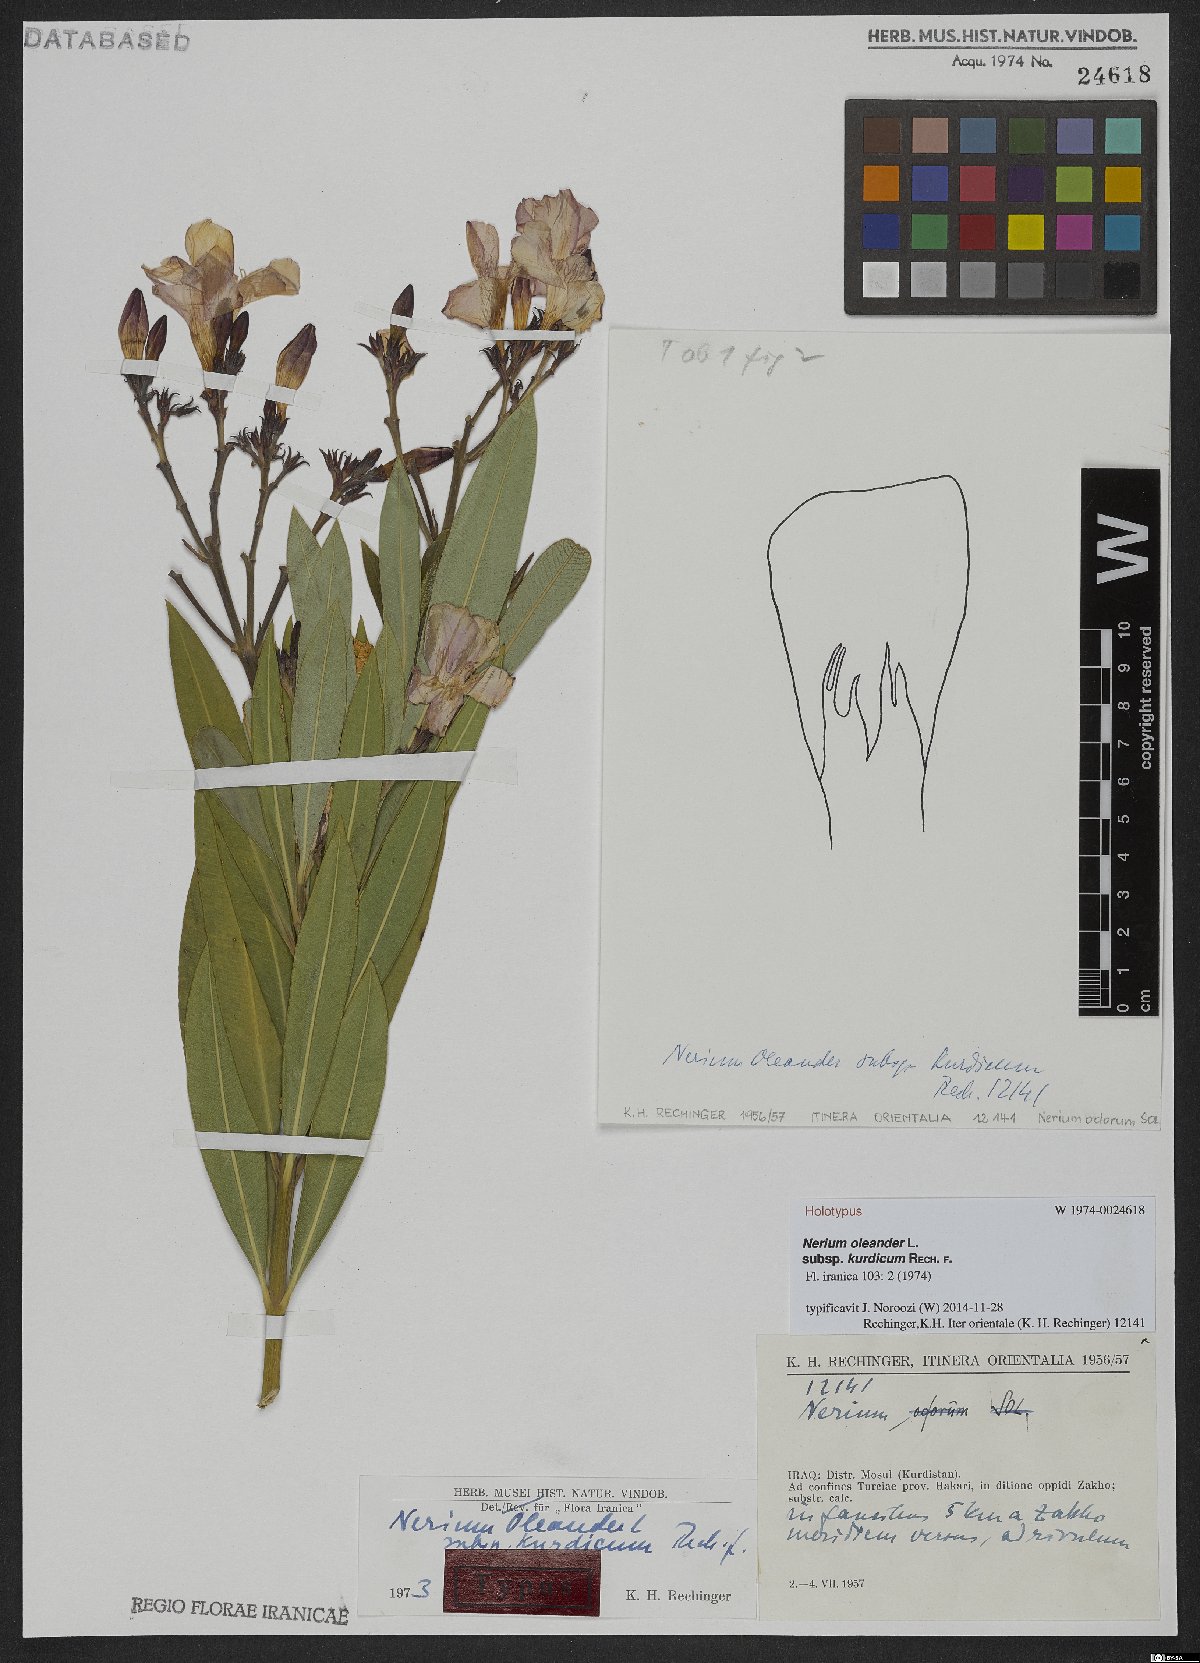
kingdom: Plantae
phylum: Tracheophyta
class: Magnoliopsida
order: Gentianales
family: Apocynaceae
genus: Nerium
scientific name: Nerium oleander
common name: Oleander
